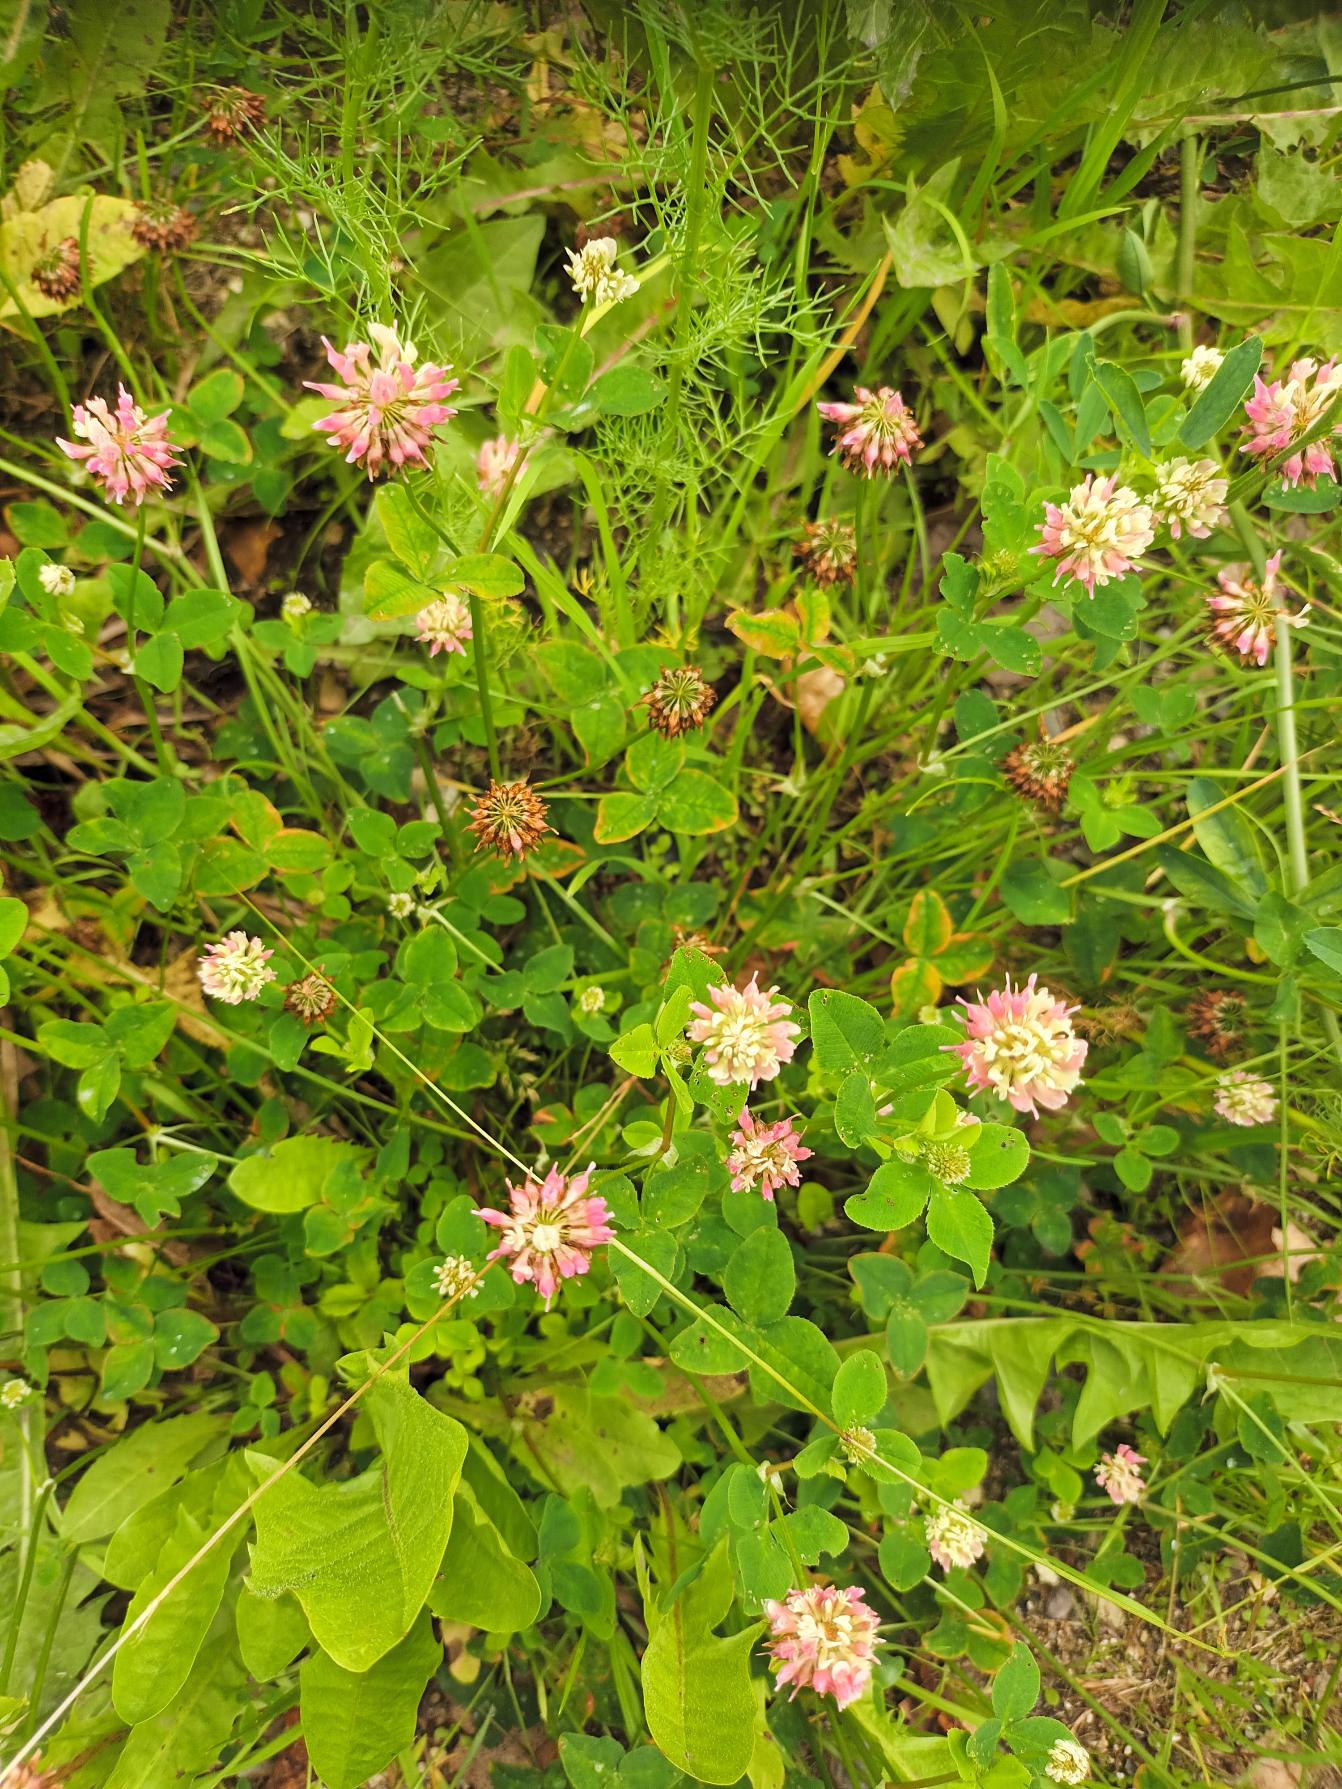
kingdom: Plantae
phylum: Tracheophyta
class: Magnoliopsida
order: Fabales
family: Fabaceae
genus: Trifolium
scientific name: Trifolium hybridum
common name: Alsike-kløver
